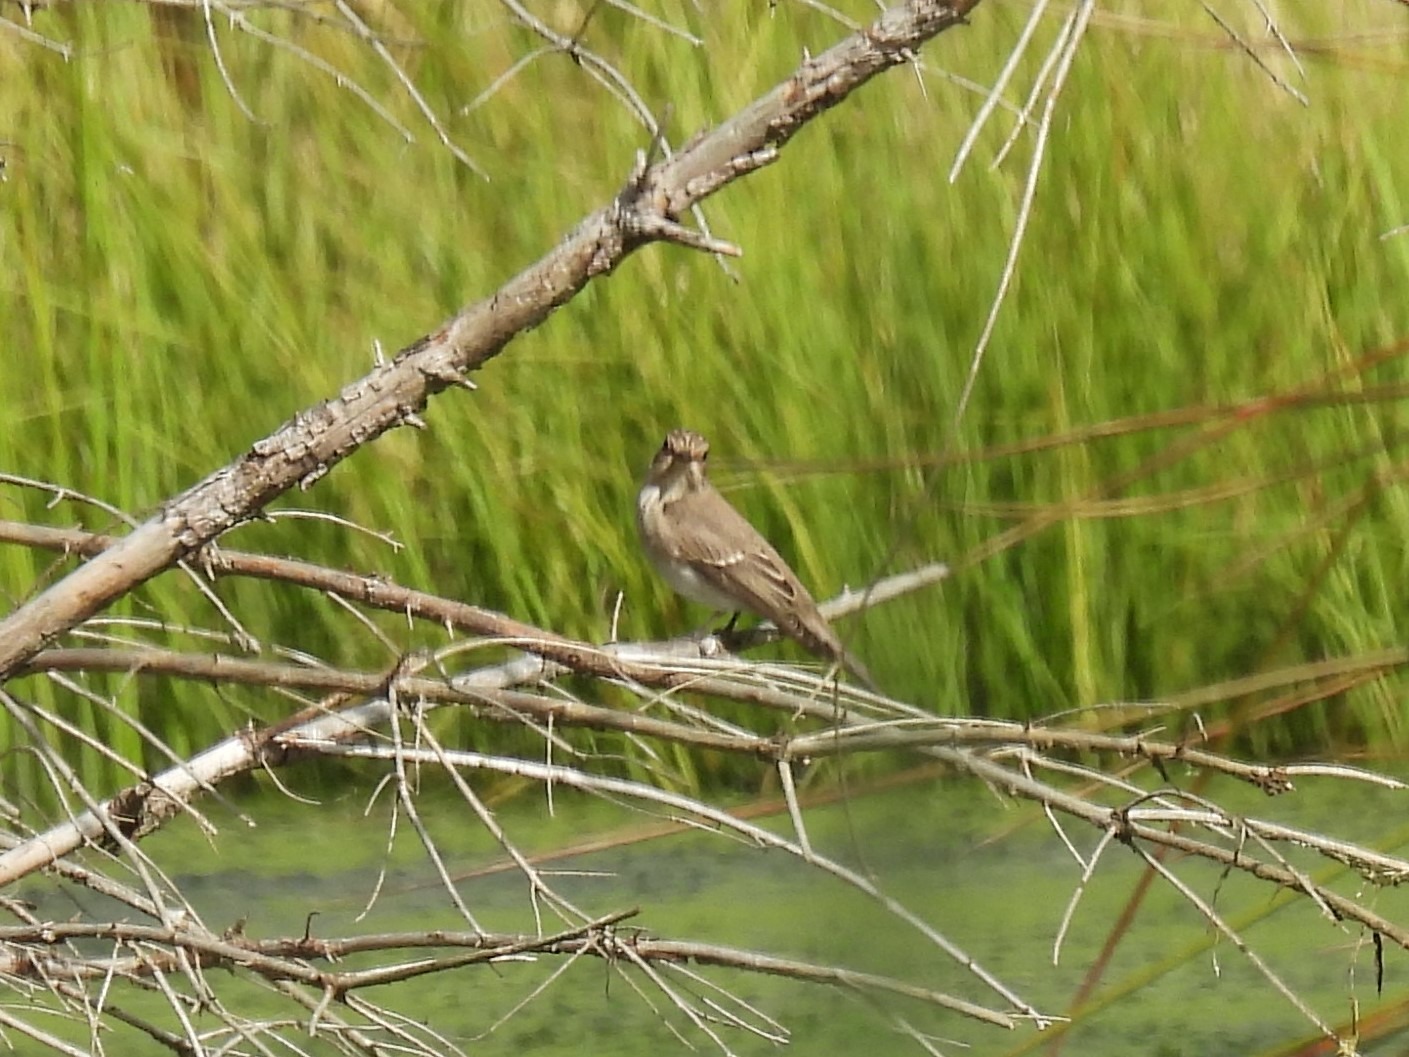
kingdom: Animalia
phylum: Chordata
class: Aves
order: Passeriformes
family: Muscicapidae
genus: Muscicapa
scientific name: Muscicapa striata
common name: Grå fluesnapper
